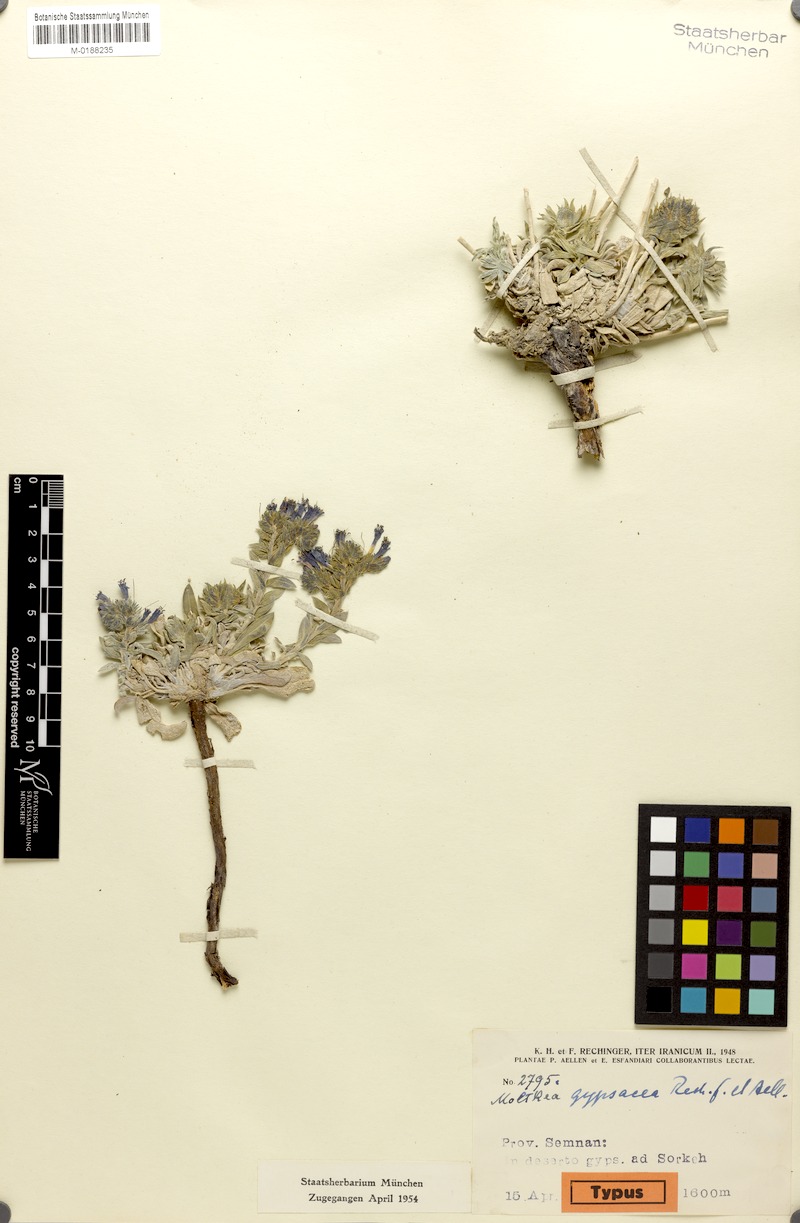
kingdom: Plantae
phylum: Tracheophyta
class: Magnoliopsida
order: Boraginales
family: Boraginaceae
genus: Moltkia
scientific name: Moltkia gypsacea
